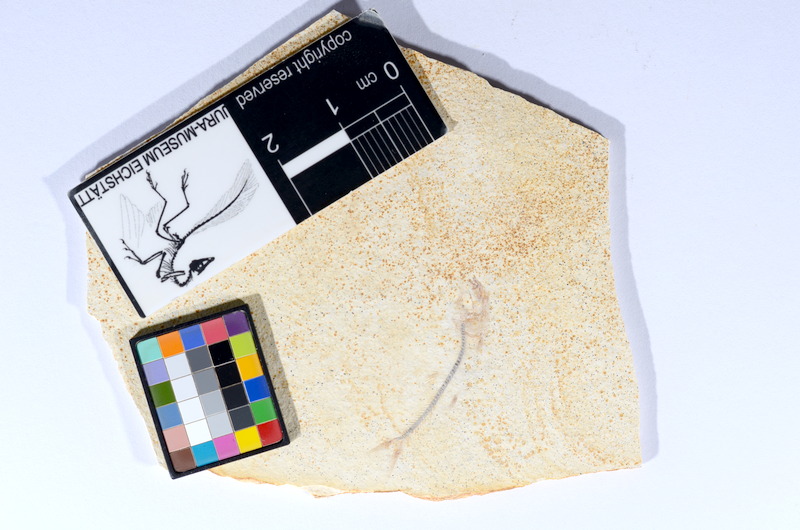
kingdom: Animalia
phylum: Chordata
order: Salmoniformes
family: Orthogonikleithridae
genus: Orthogonikleithrus
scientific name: Orthogonikleithrus hoelli
